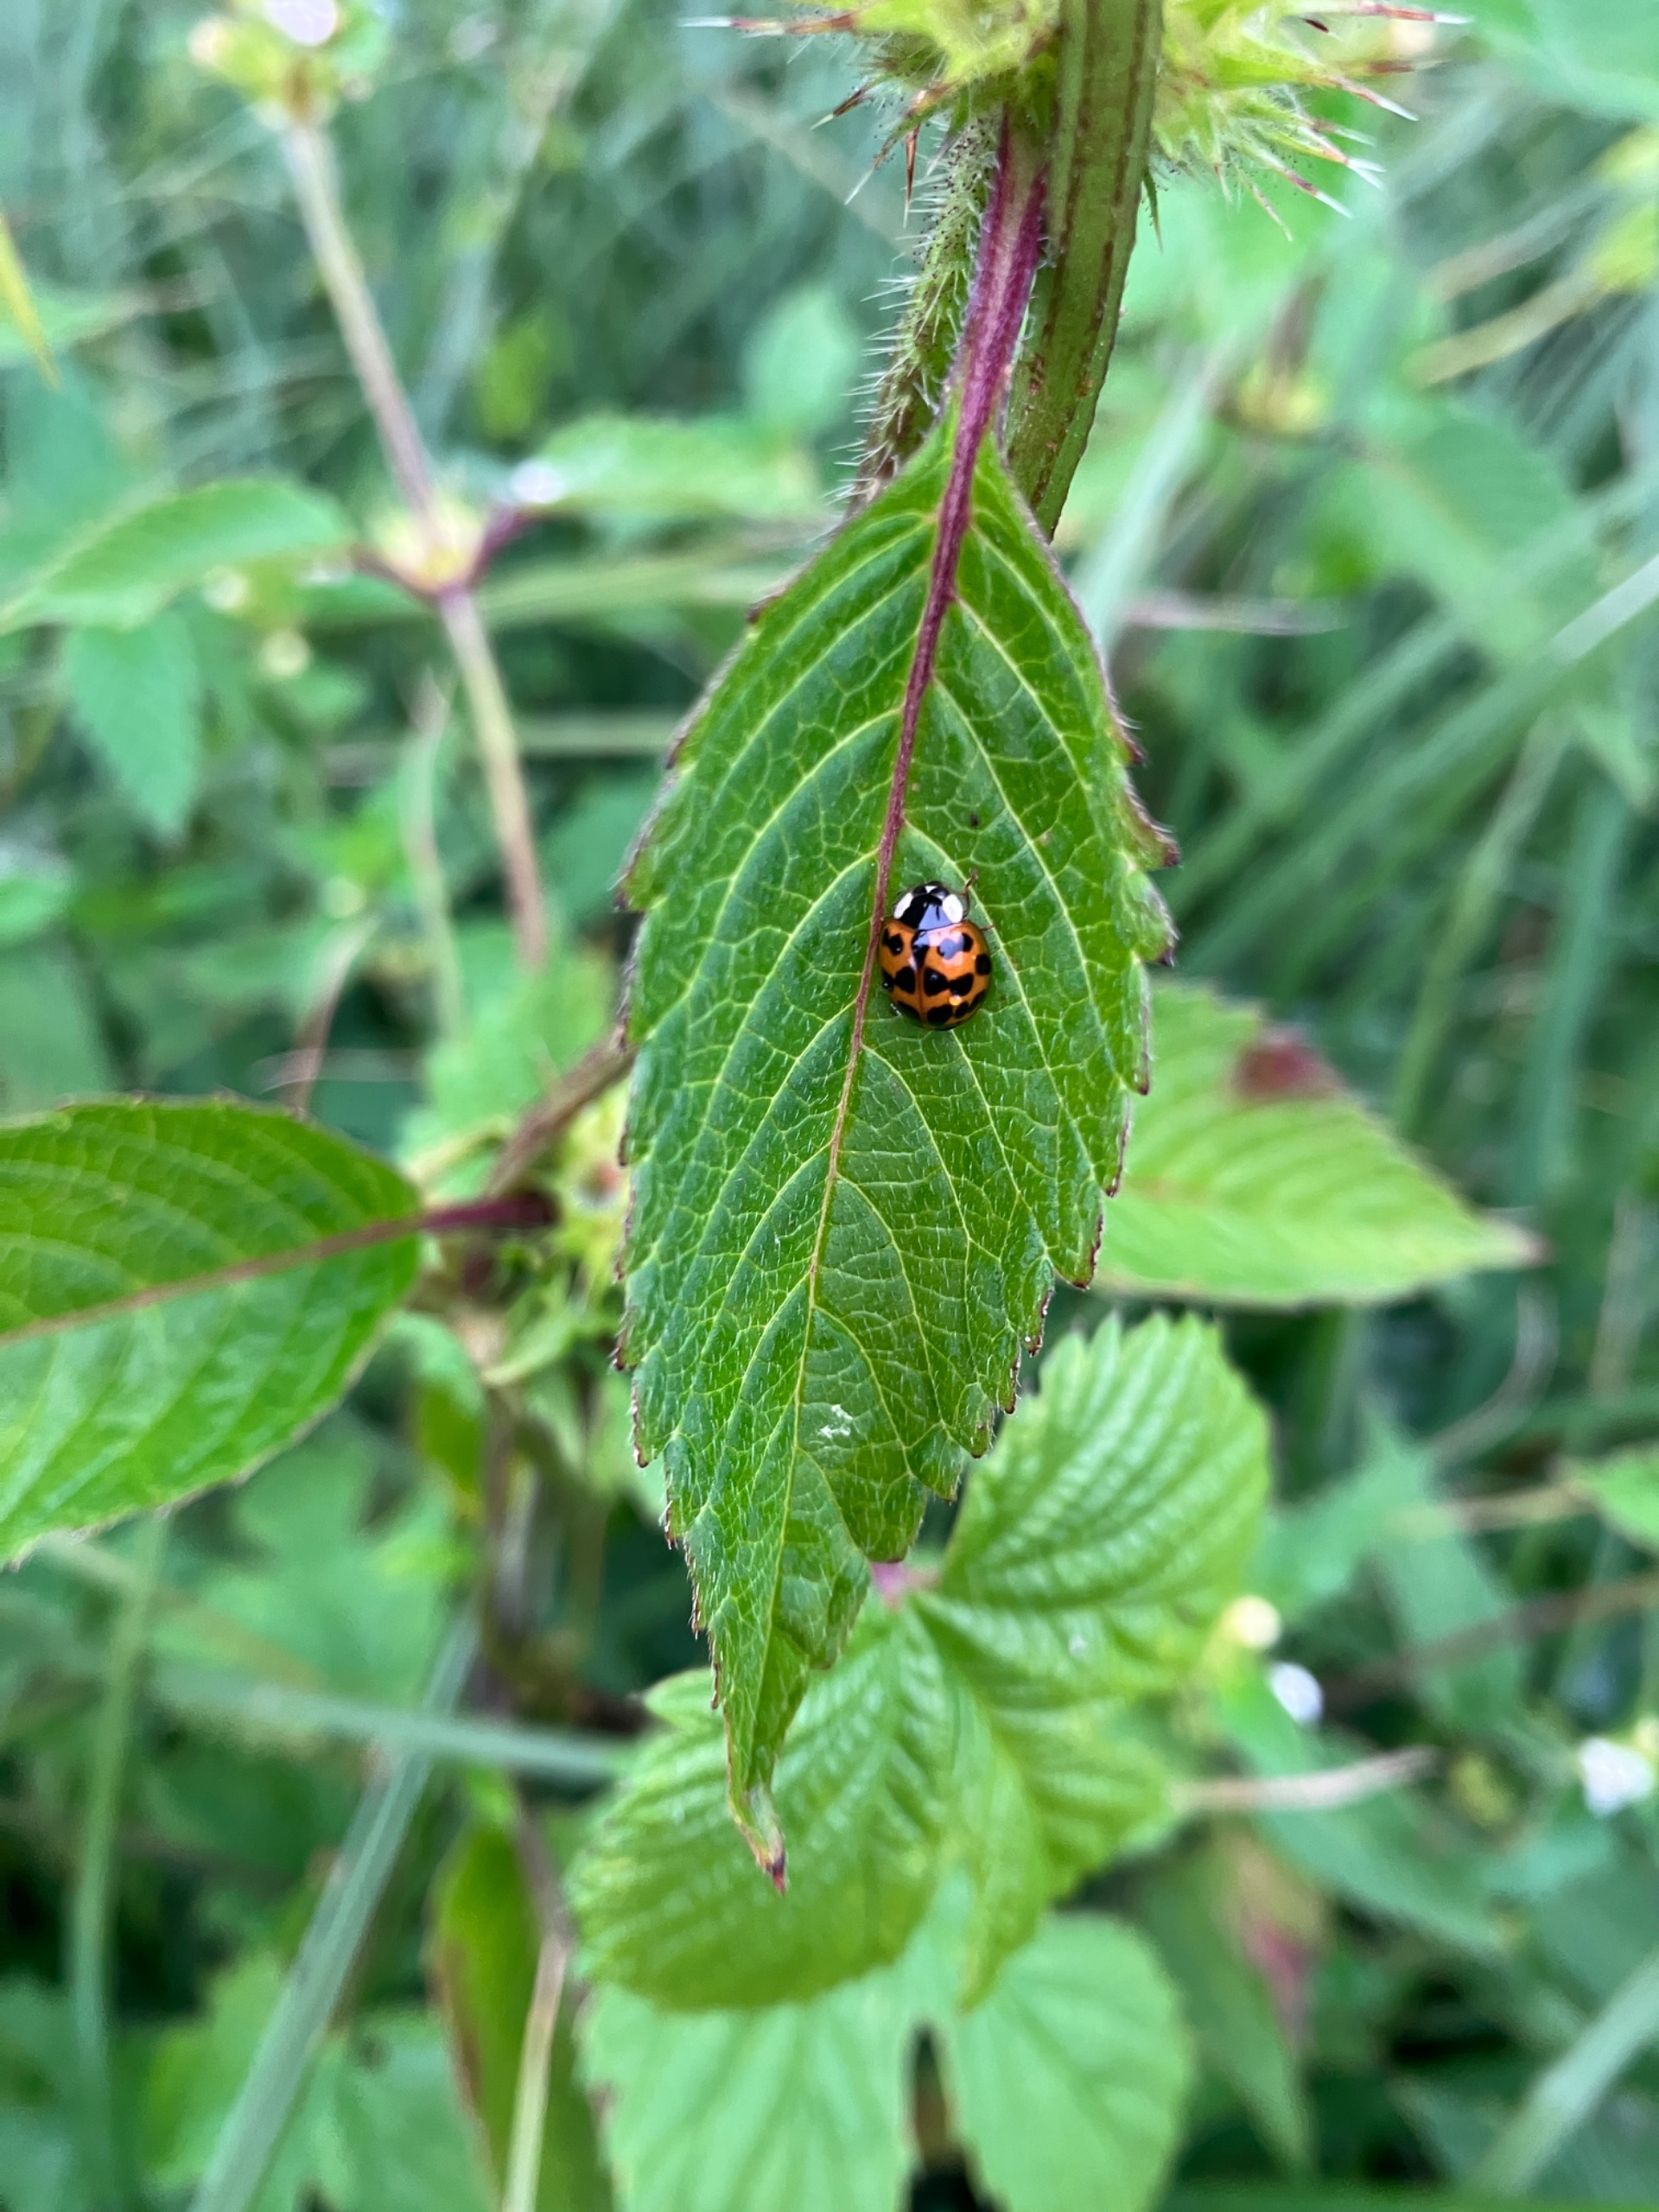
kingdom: Animalia
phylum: Arthropoda
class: Insecta
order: Coleoptera
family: Coccinellidae
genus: Harmonia
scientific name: Harmonia axyridis
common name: Harlekinmariehøne
